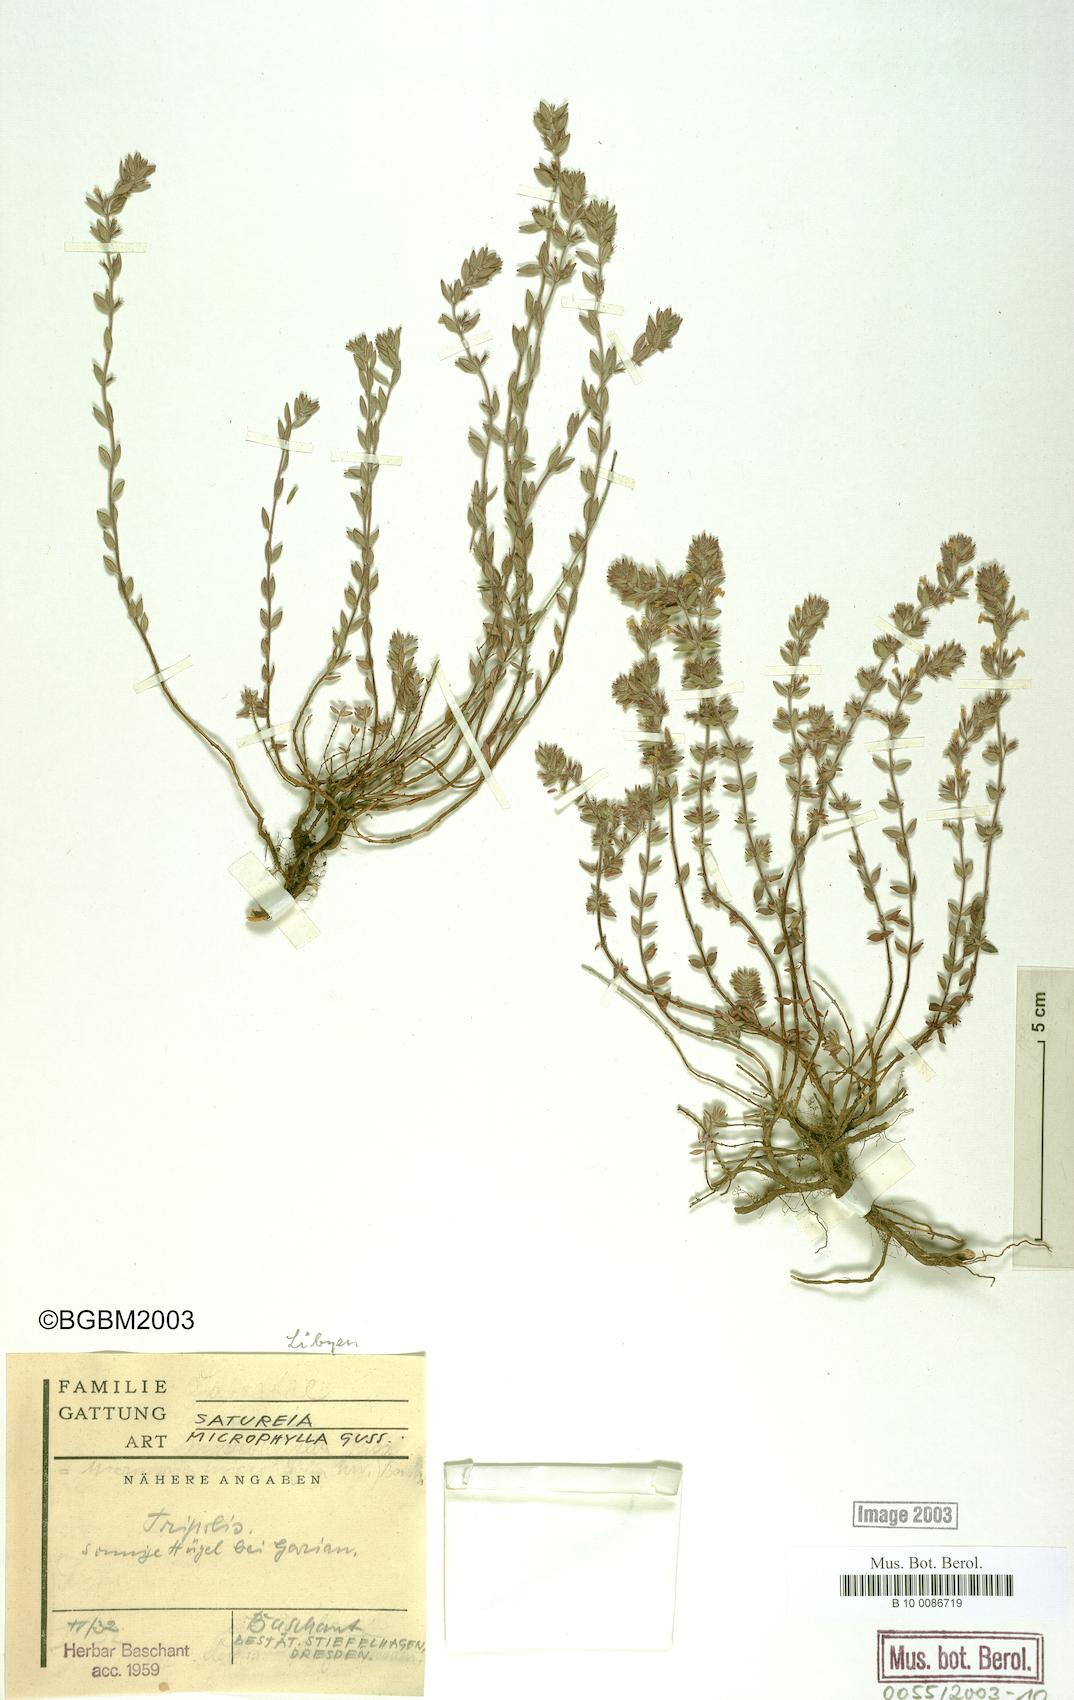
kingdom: Plantae
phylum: Tracheophyta
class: Magnoliopsida
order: Lamiales
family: Lamiaceae
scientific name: Lamiaceae
